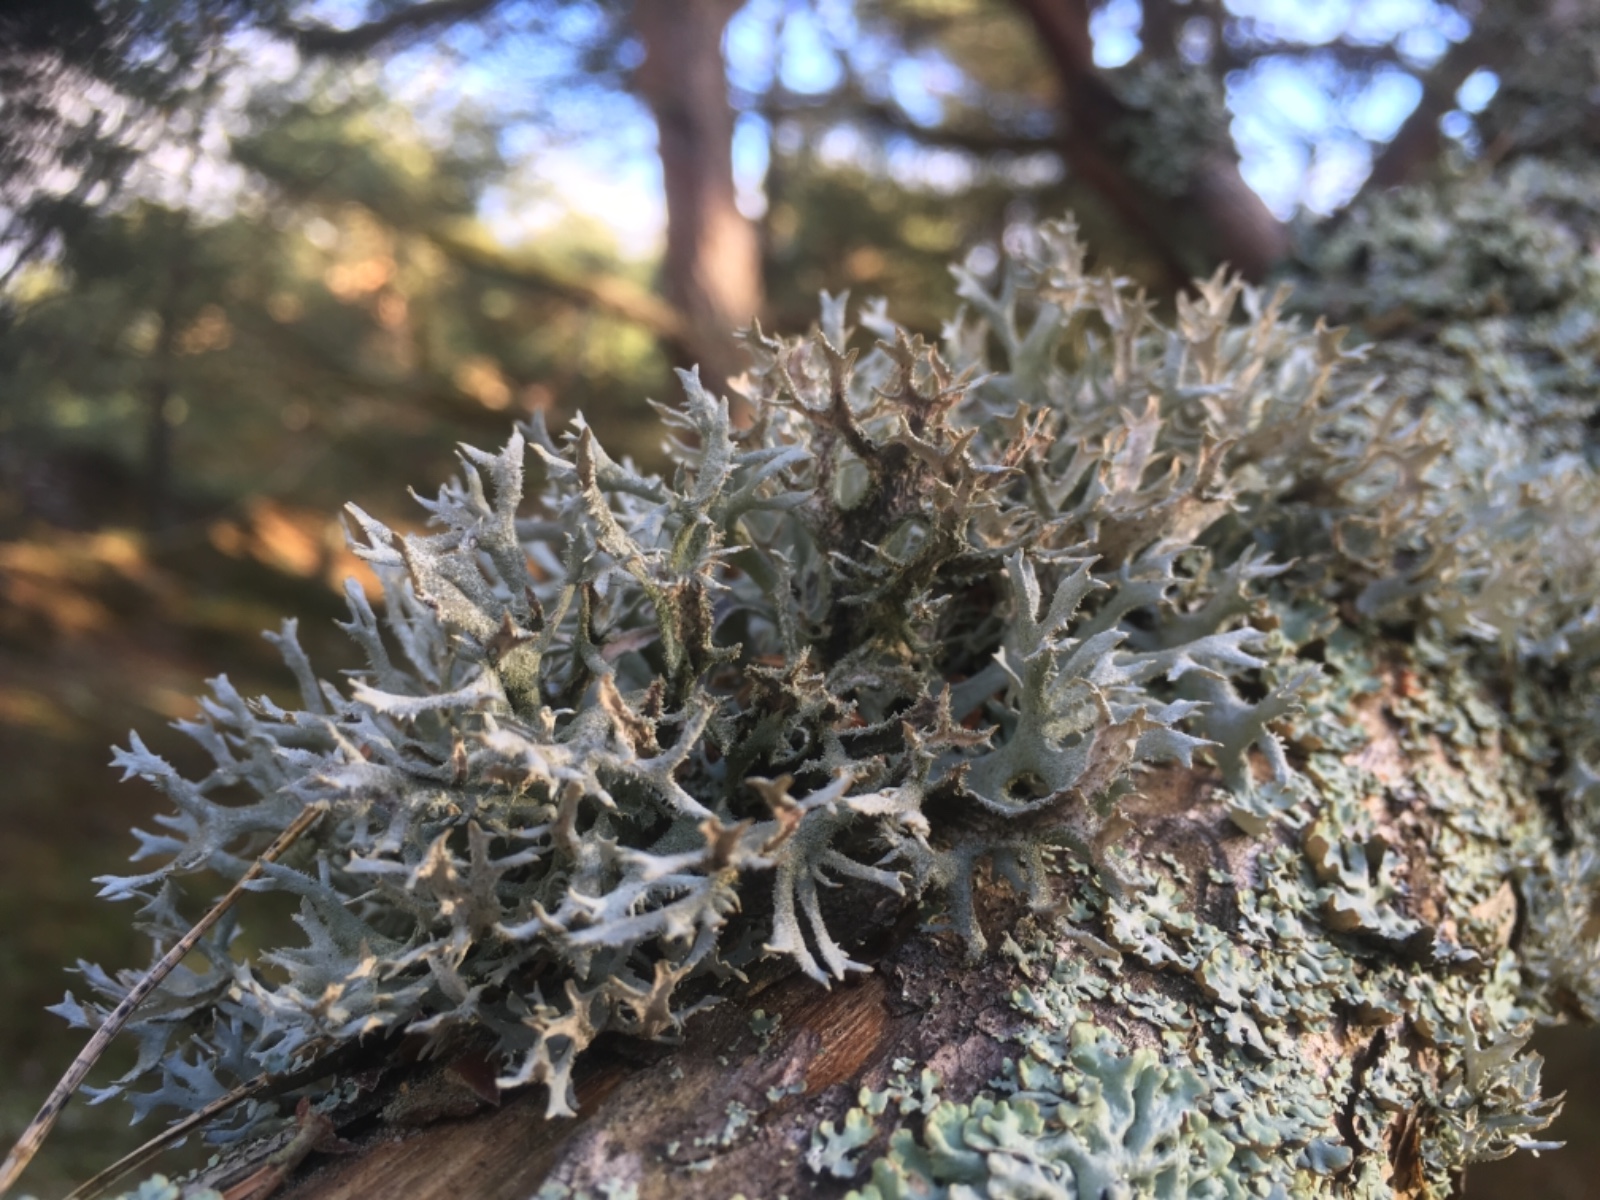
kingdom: Fungi
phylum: Ascomycota
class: Lecanoromycetes
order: Lecanorales
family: Parmeliaceae
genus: Pseudevernia
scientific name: Pseudevernia furfuracea
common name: grå fyrrelav
